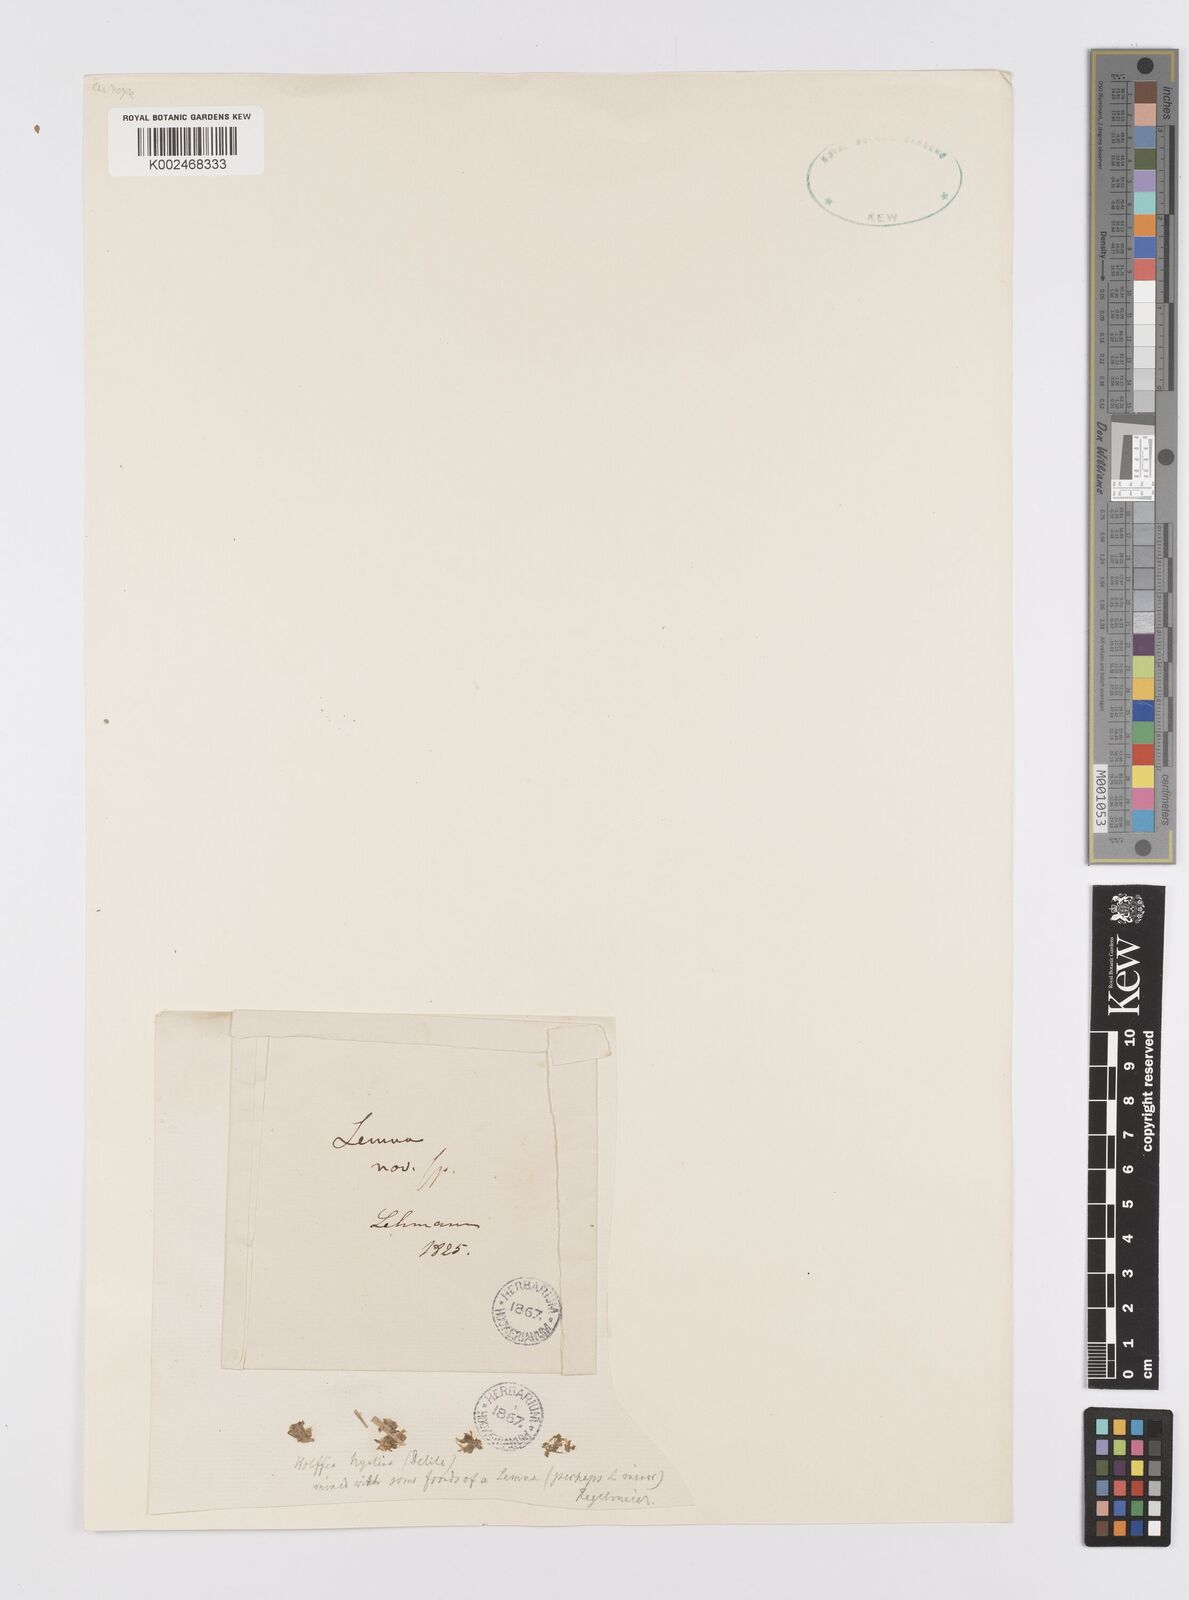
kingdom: Plantae
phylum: Tracheophyta
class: Liliopsida
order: Alismatales
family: Araceae
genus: Wolffiella
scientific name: Wolffiella hyalina
